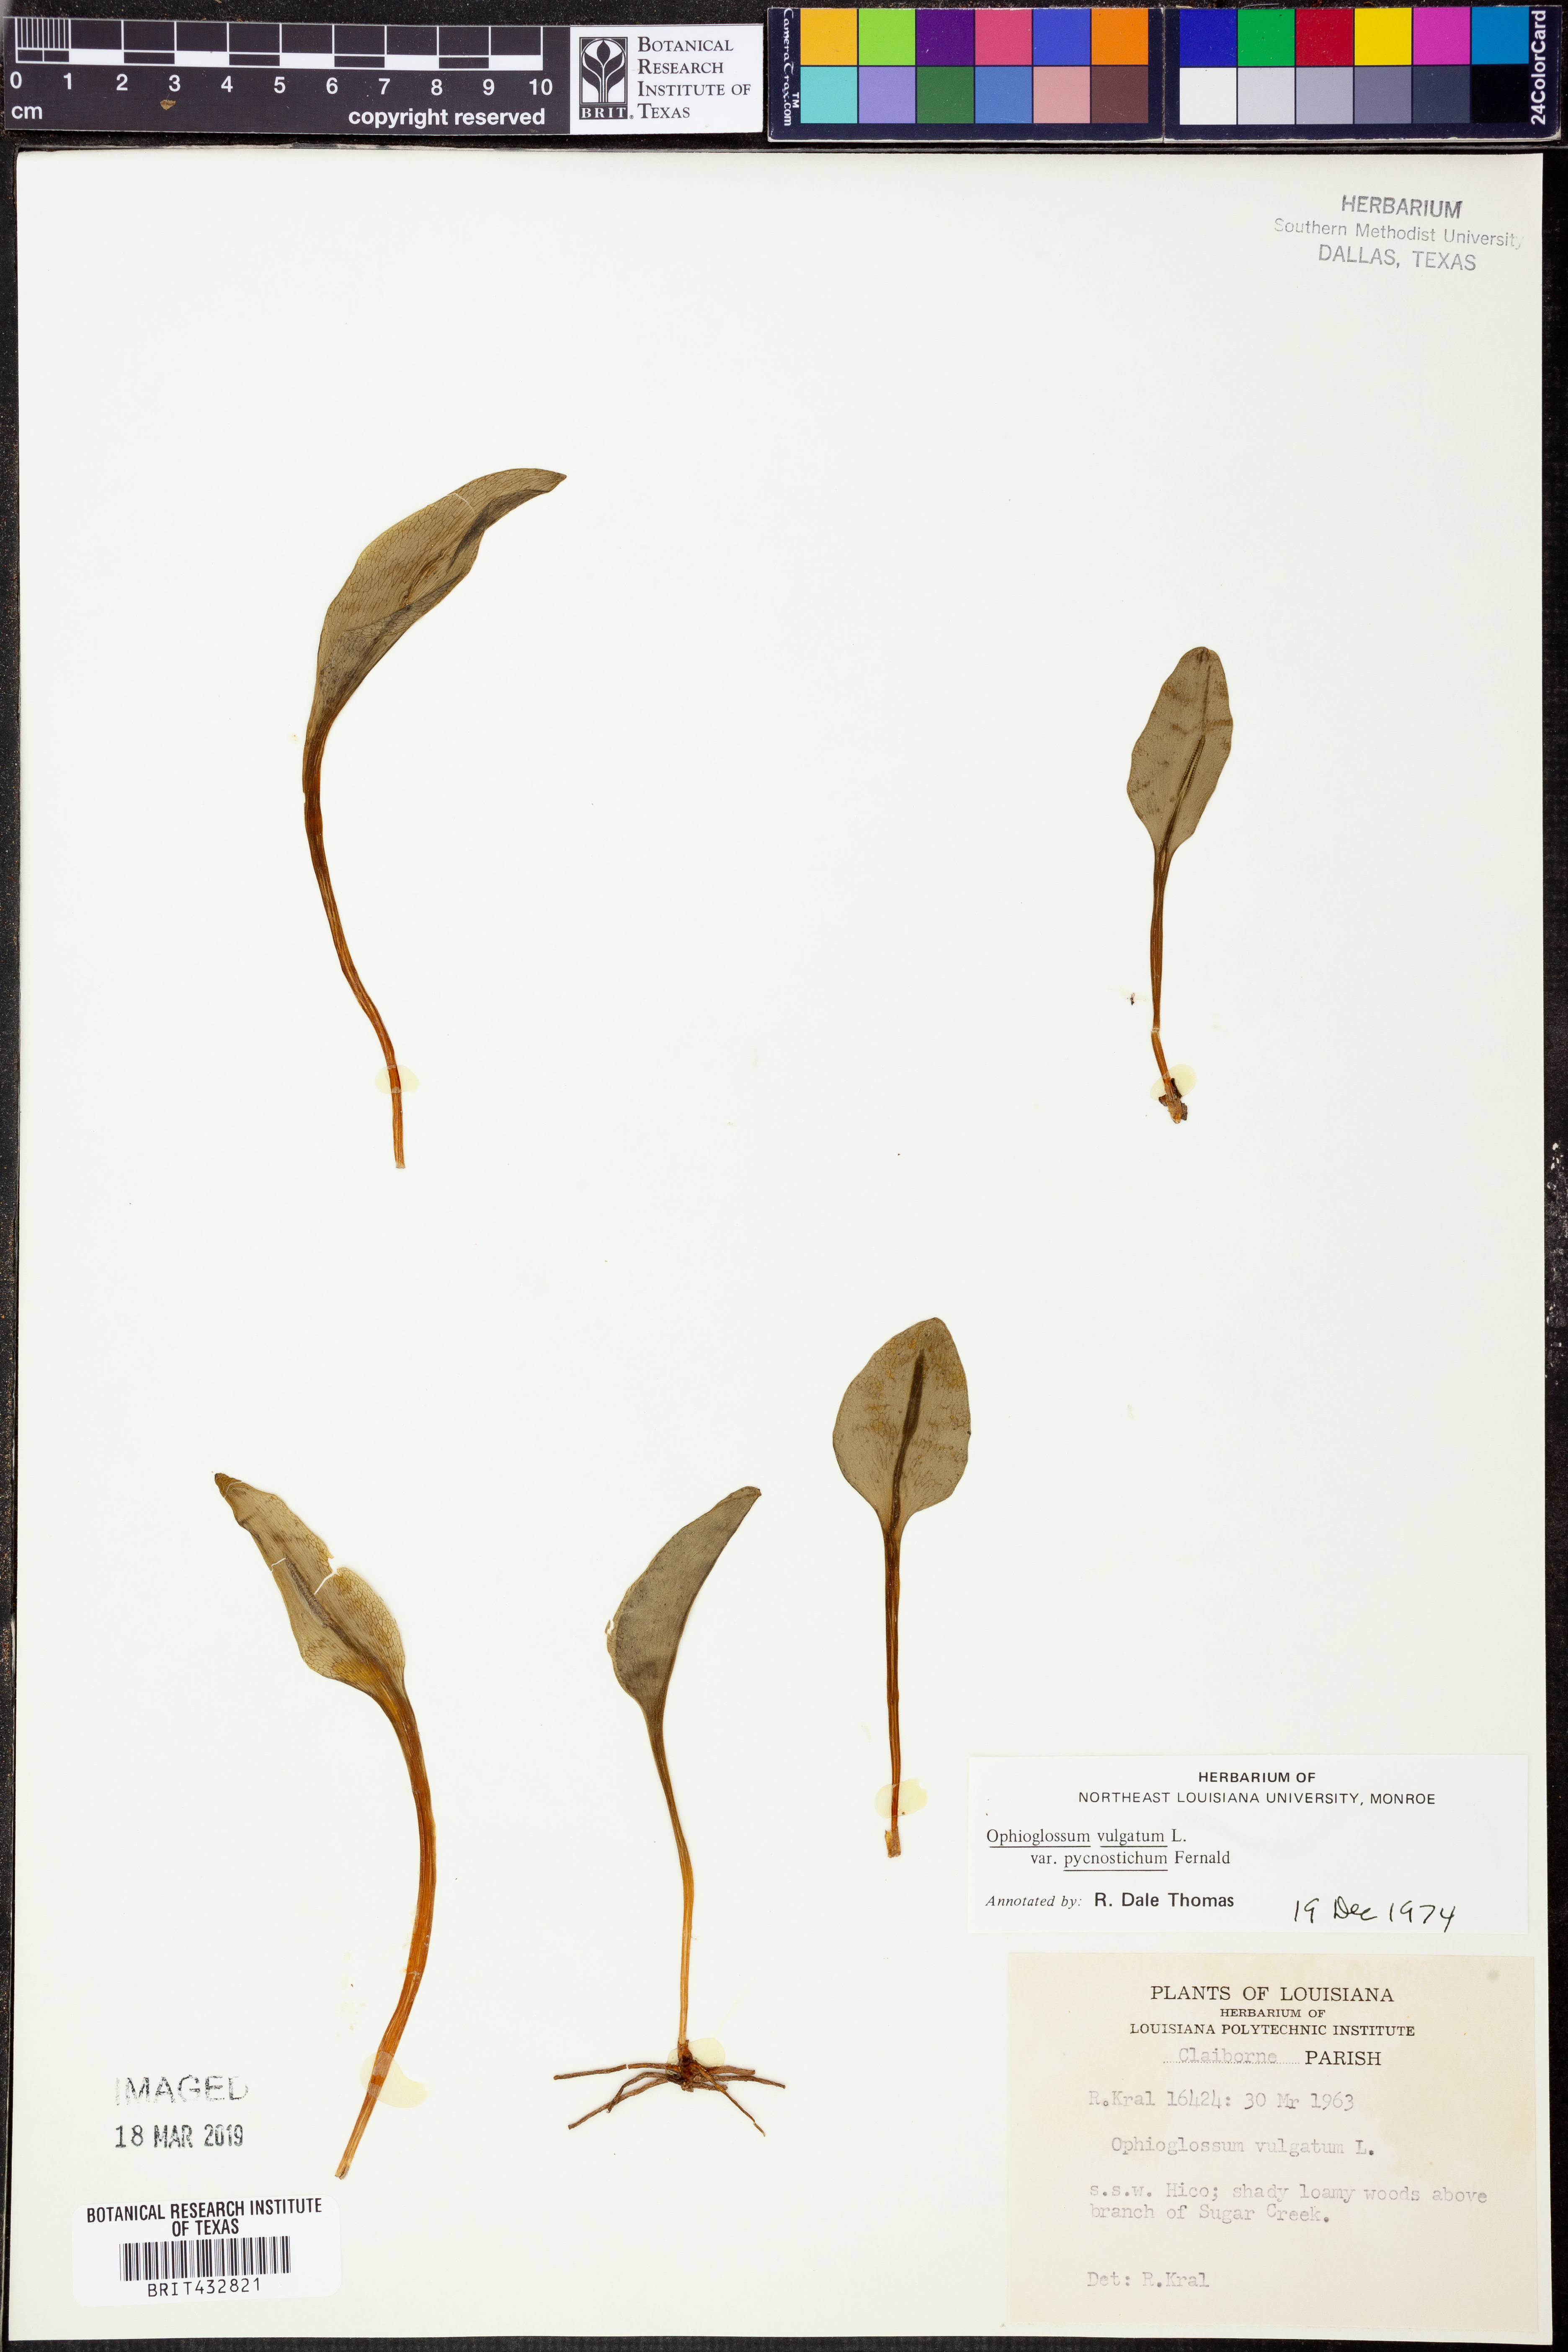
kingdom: Plantae
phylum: Tracheophyta
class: Polypodiopsida
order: Ophioglossales
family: Ophioglossaceae
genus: Ophioglossum
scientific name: Ophioglossum vulgatum
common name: Adder's-tongue
